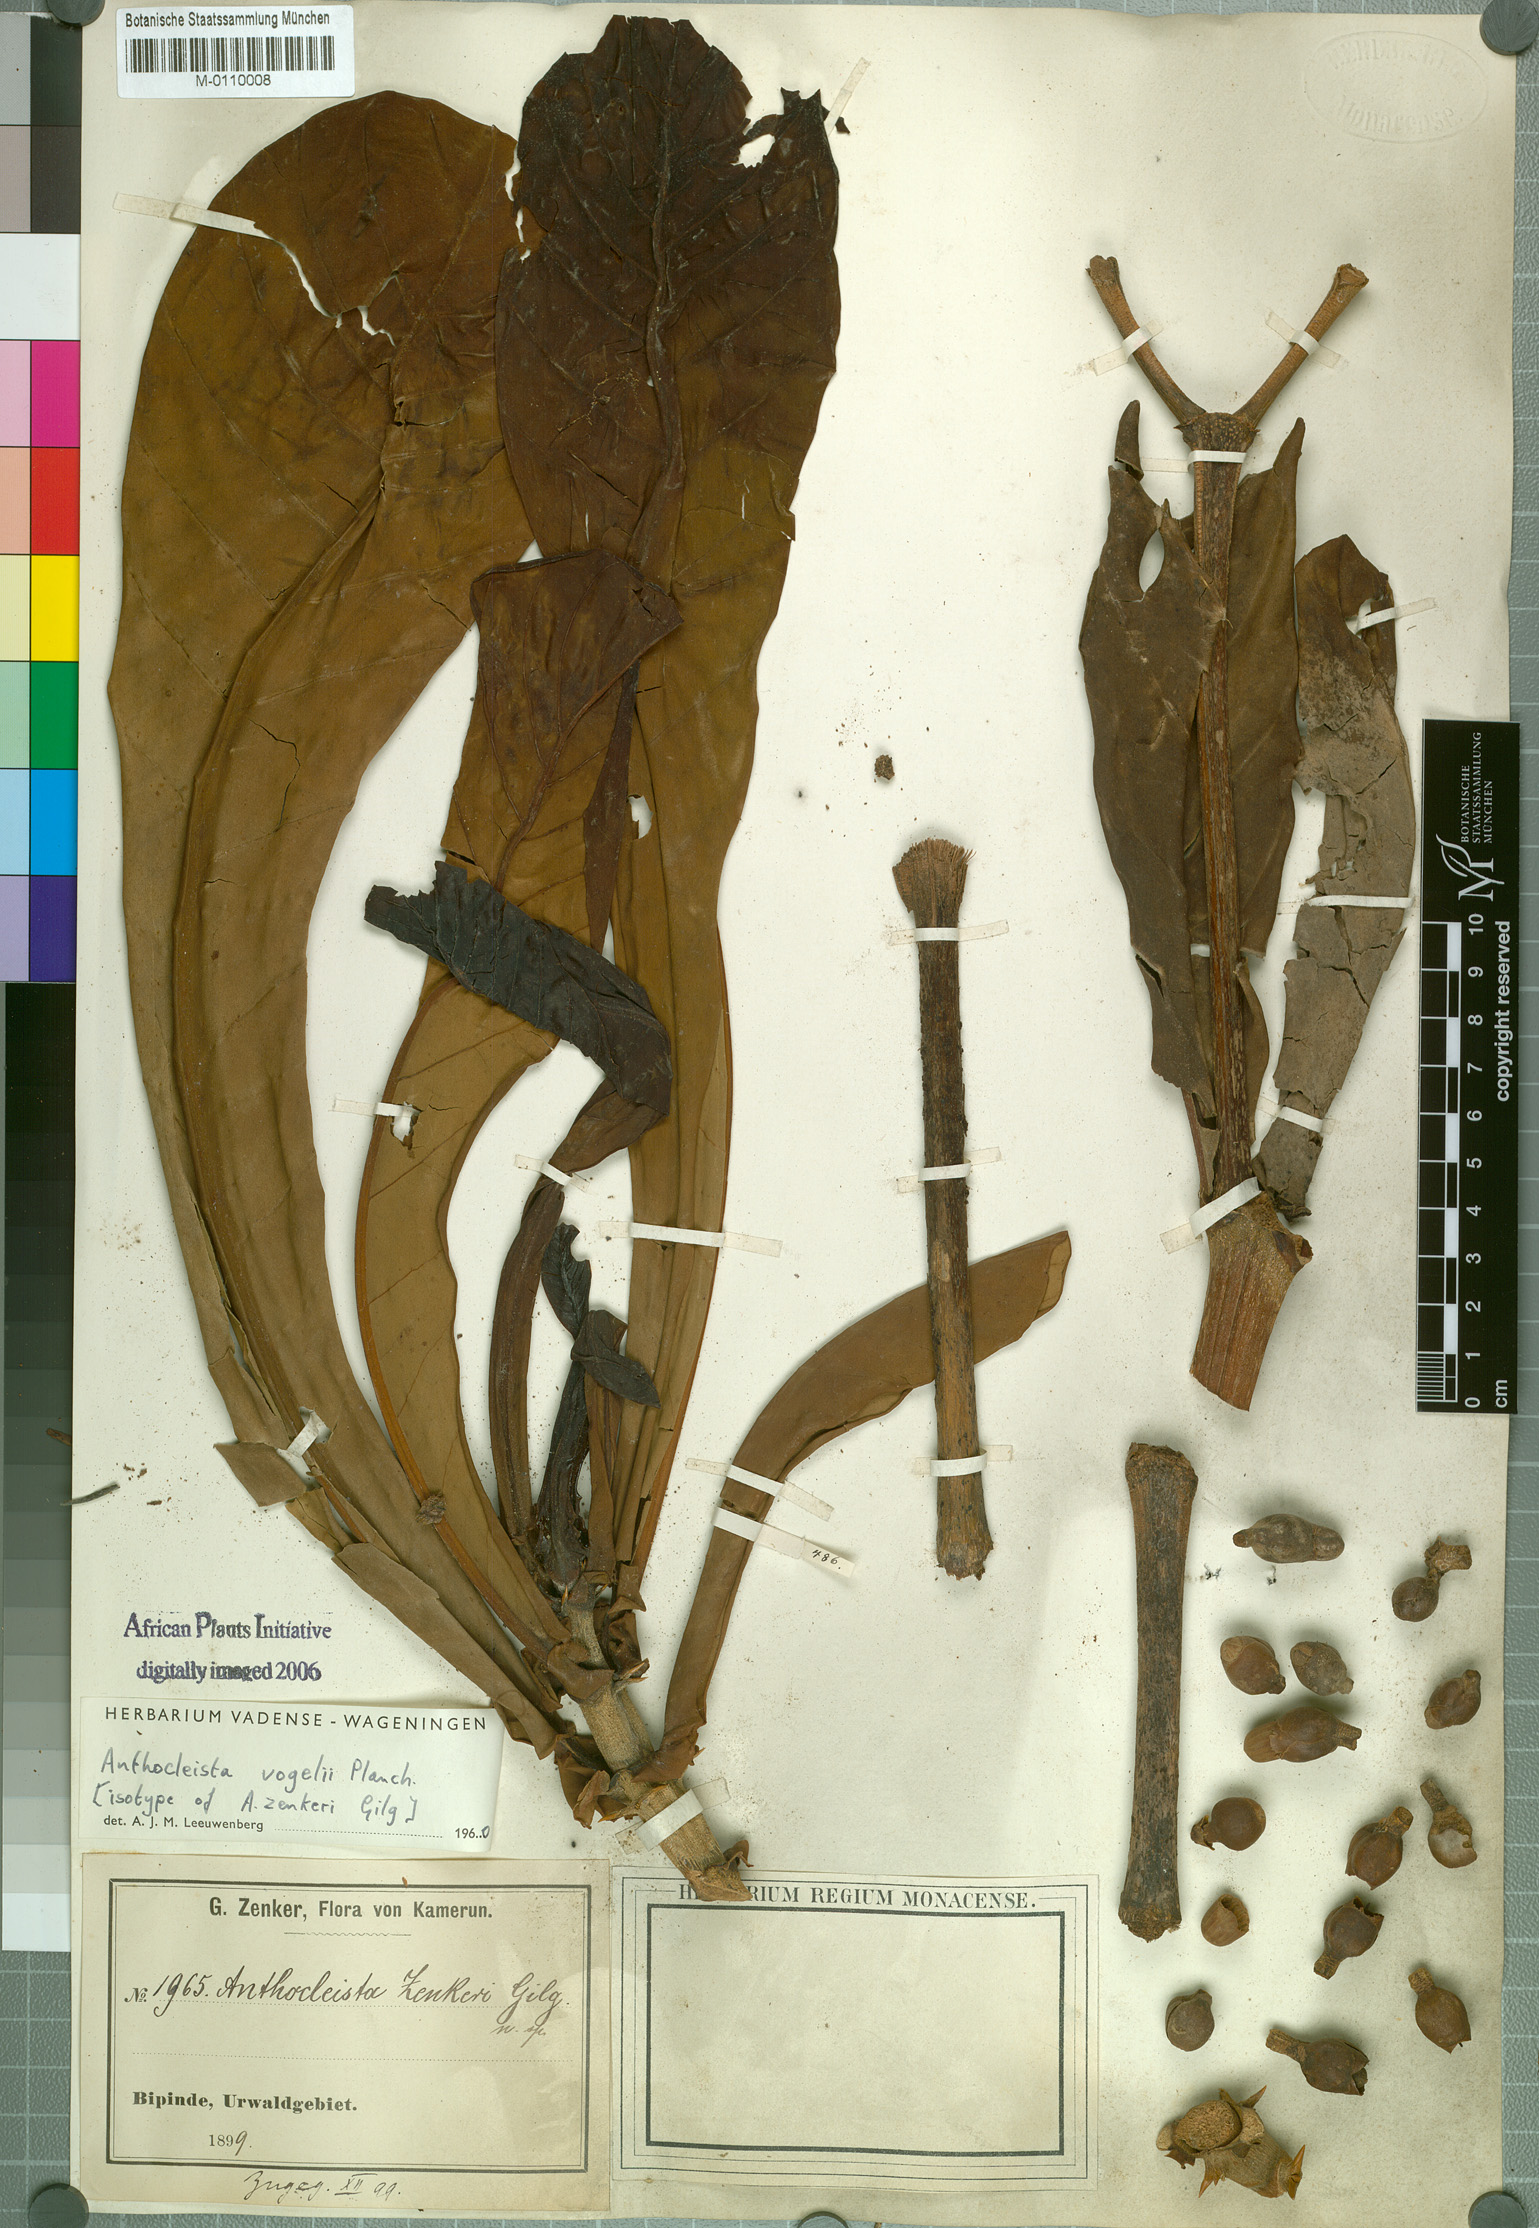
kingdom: Plantae
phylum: Tracheophyta
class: Magnoliopsida
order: Gentianales
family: Gentianaceae
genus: Anthocleista
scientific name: Anthocleista vogelii
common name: Cabbage tree
